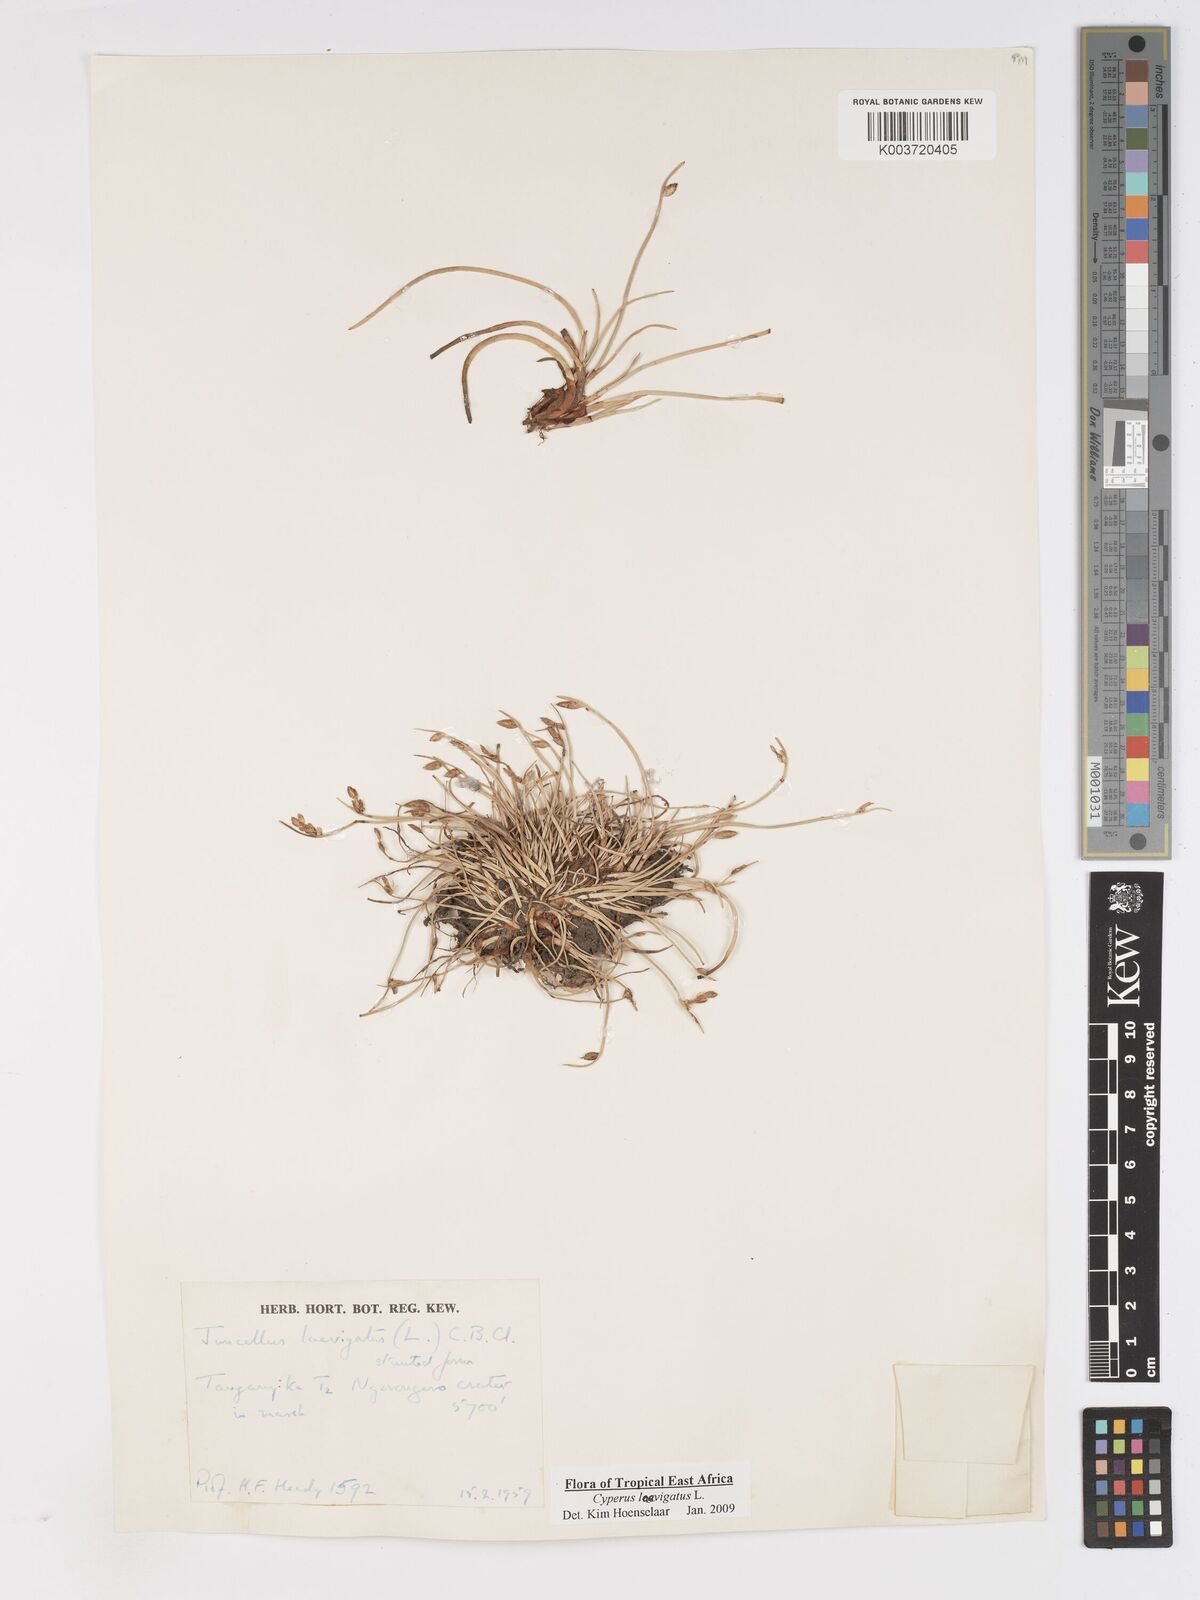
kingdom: Plantae
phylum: Tracheophyta
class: Liliopsida
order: Poales
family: Cyperaceae
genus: Cyperus
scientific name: Cyperus laevigatus
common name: Smooth flat sedge
